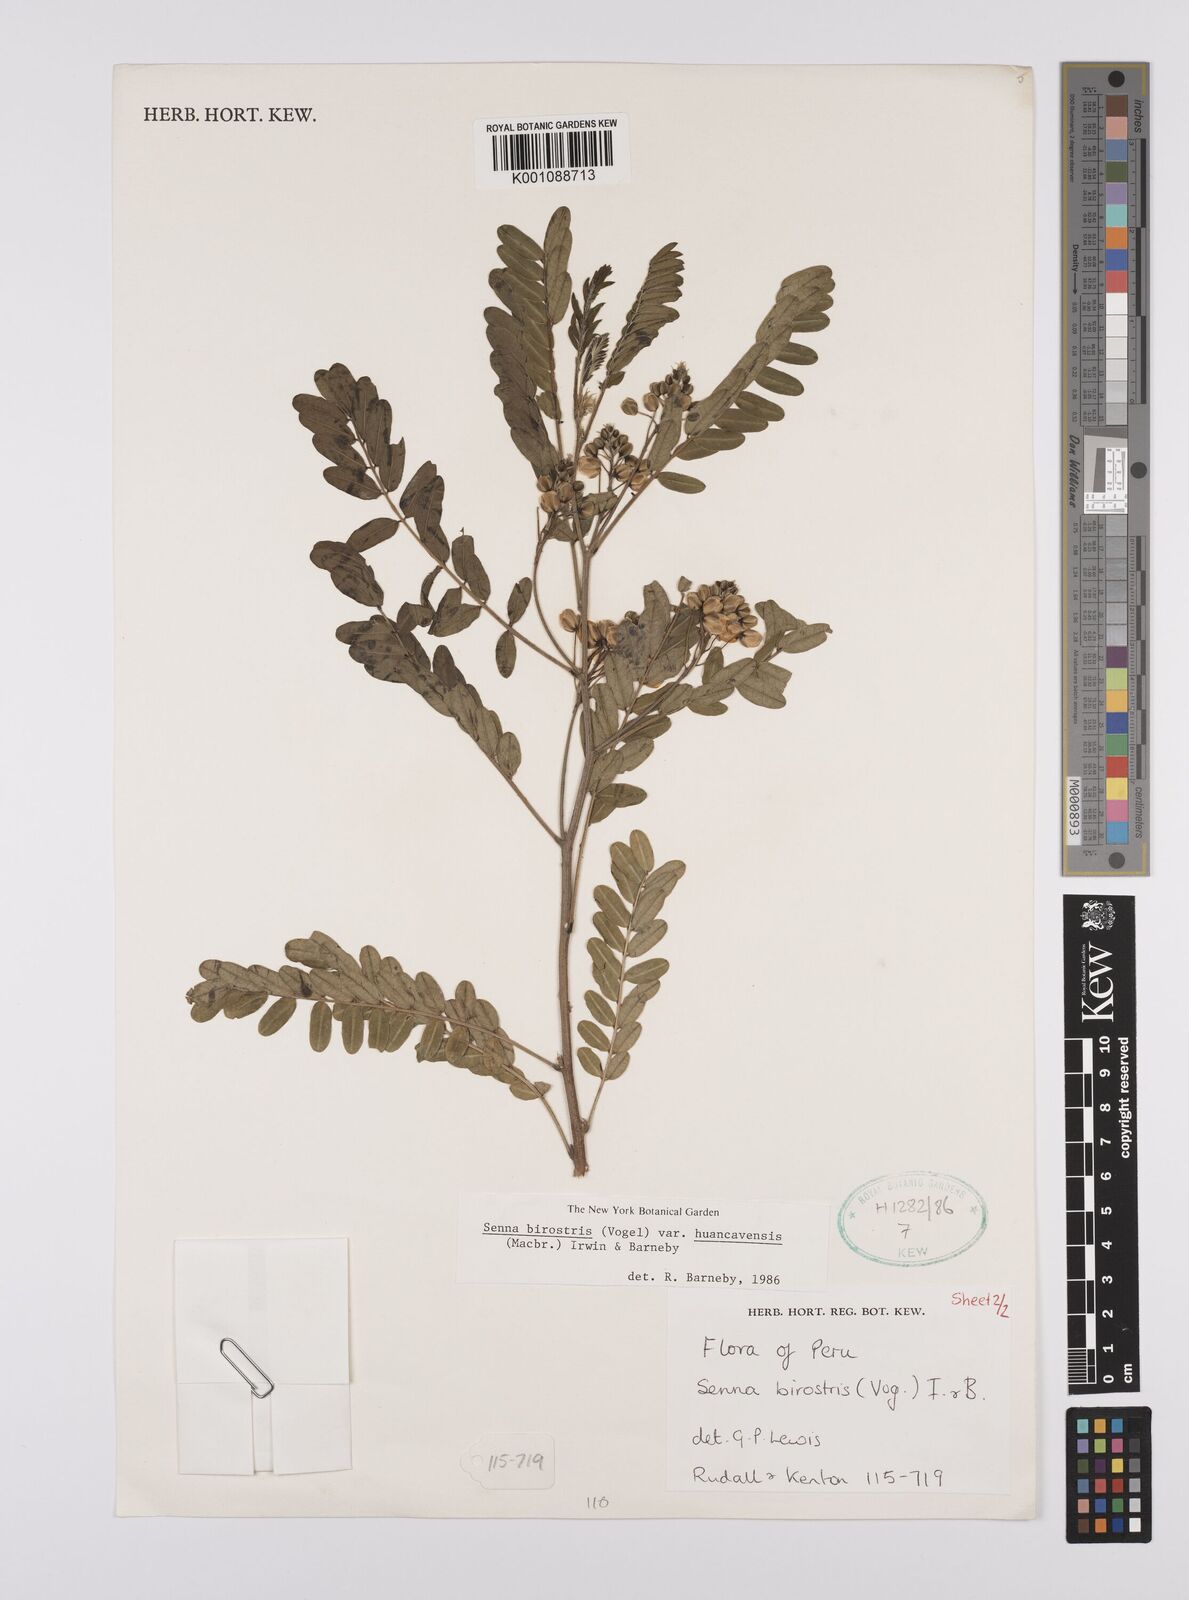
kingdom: Plantae
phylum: Tracheophyta
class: Magnoliopsida
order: Fabales
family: Fabaceae
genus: Senna
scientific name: Senna birostris
